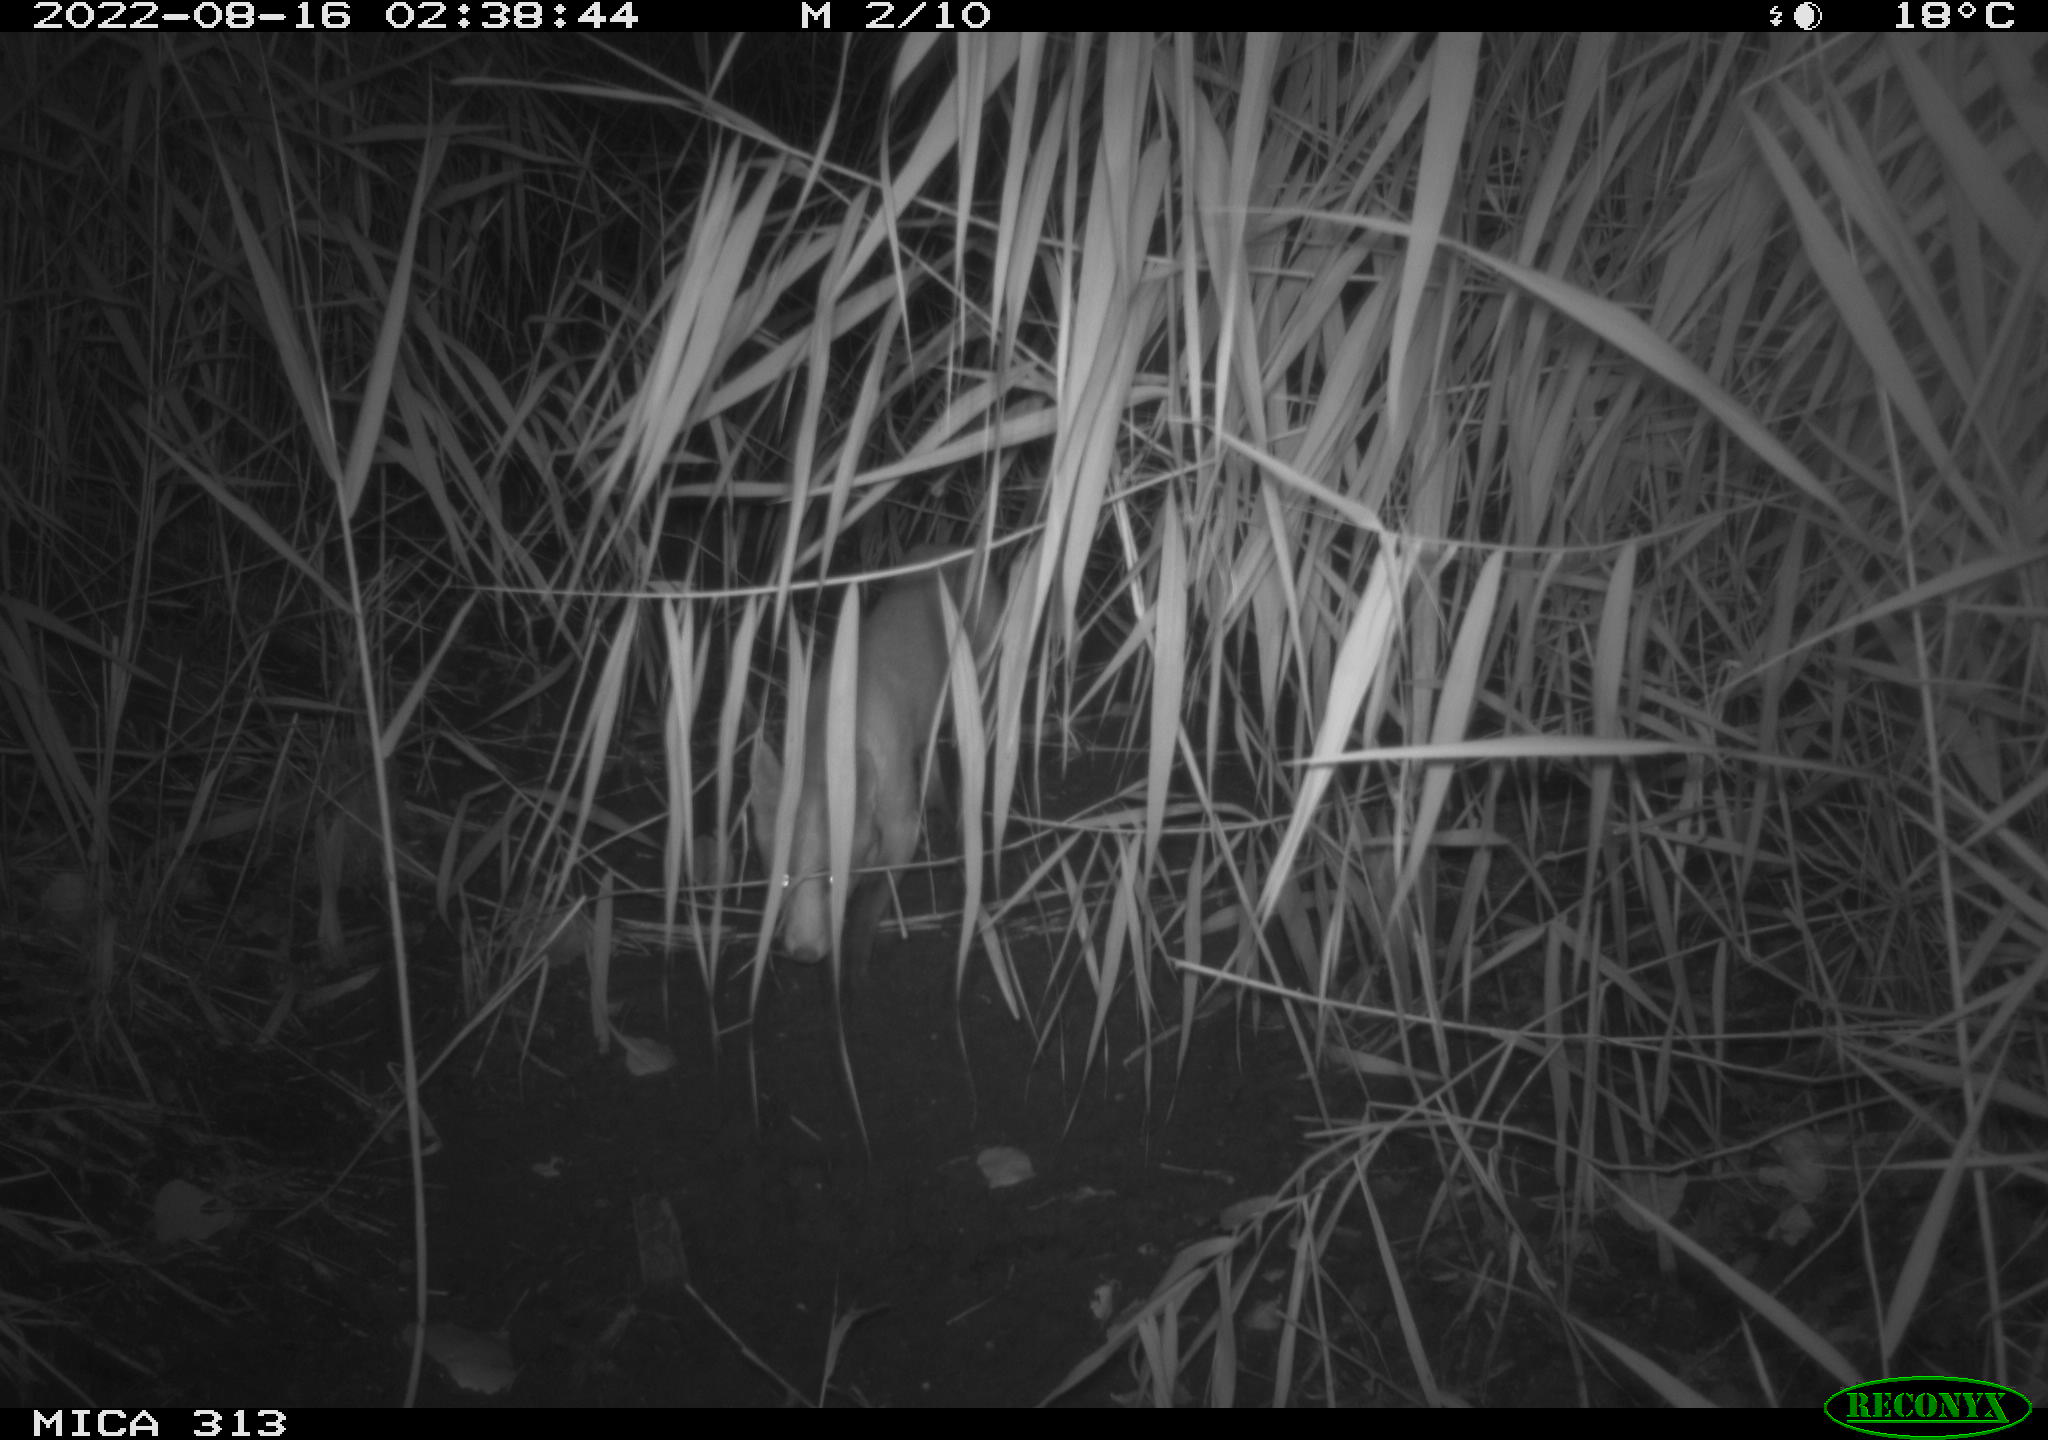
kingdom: Animalia
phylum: Chordata
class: Mammalia
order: Carnivora
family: Canidae
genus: Vulpes
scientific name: Vulpes vulpes
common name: Red fox
